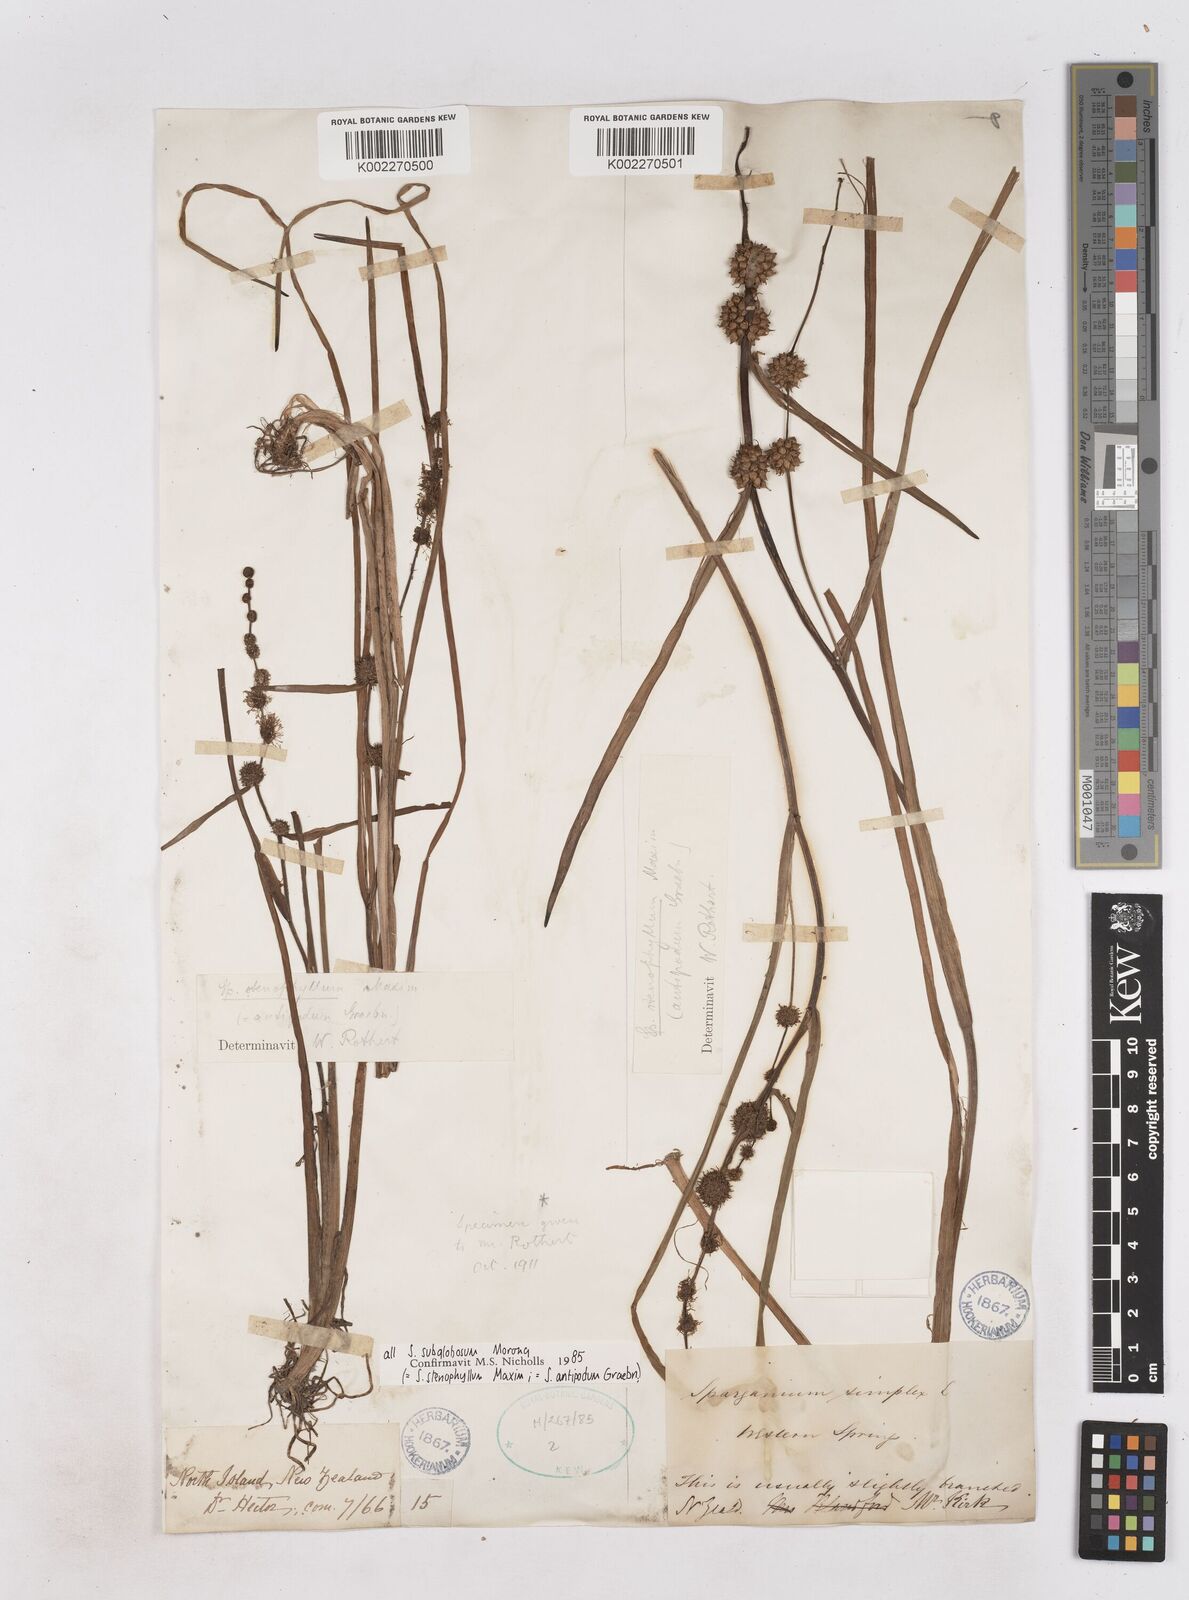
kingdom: Plantae
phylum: Tracheophyta
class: Liliopsida
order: Poales
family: Typhaceae
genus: Sparganium
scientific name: Sparganium subglobosum
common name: Burr­-reed
